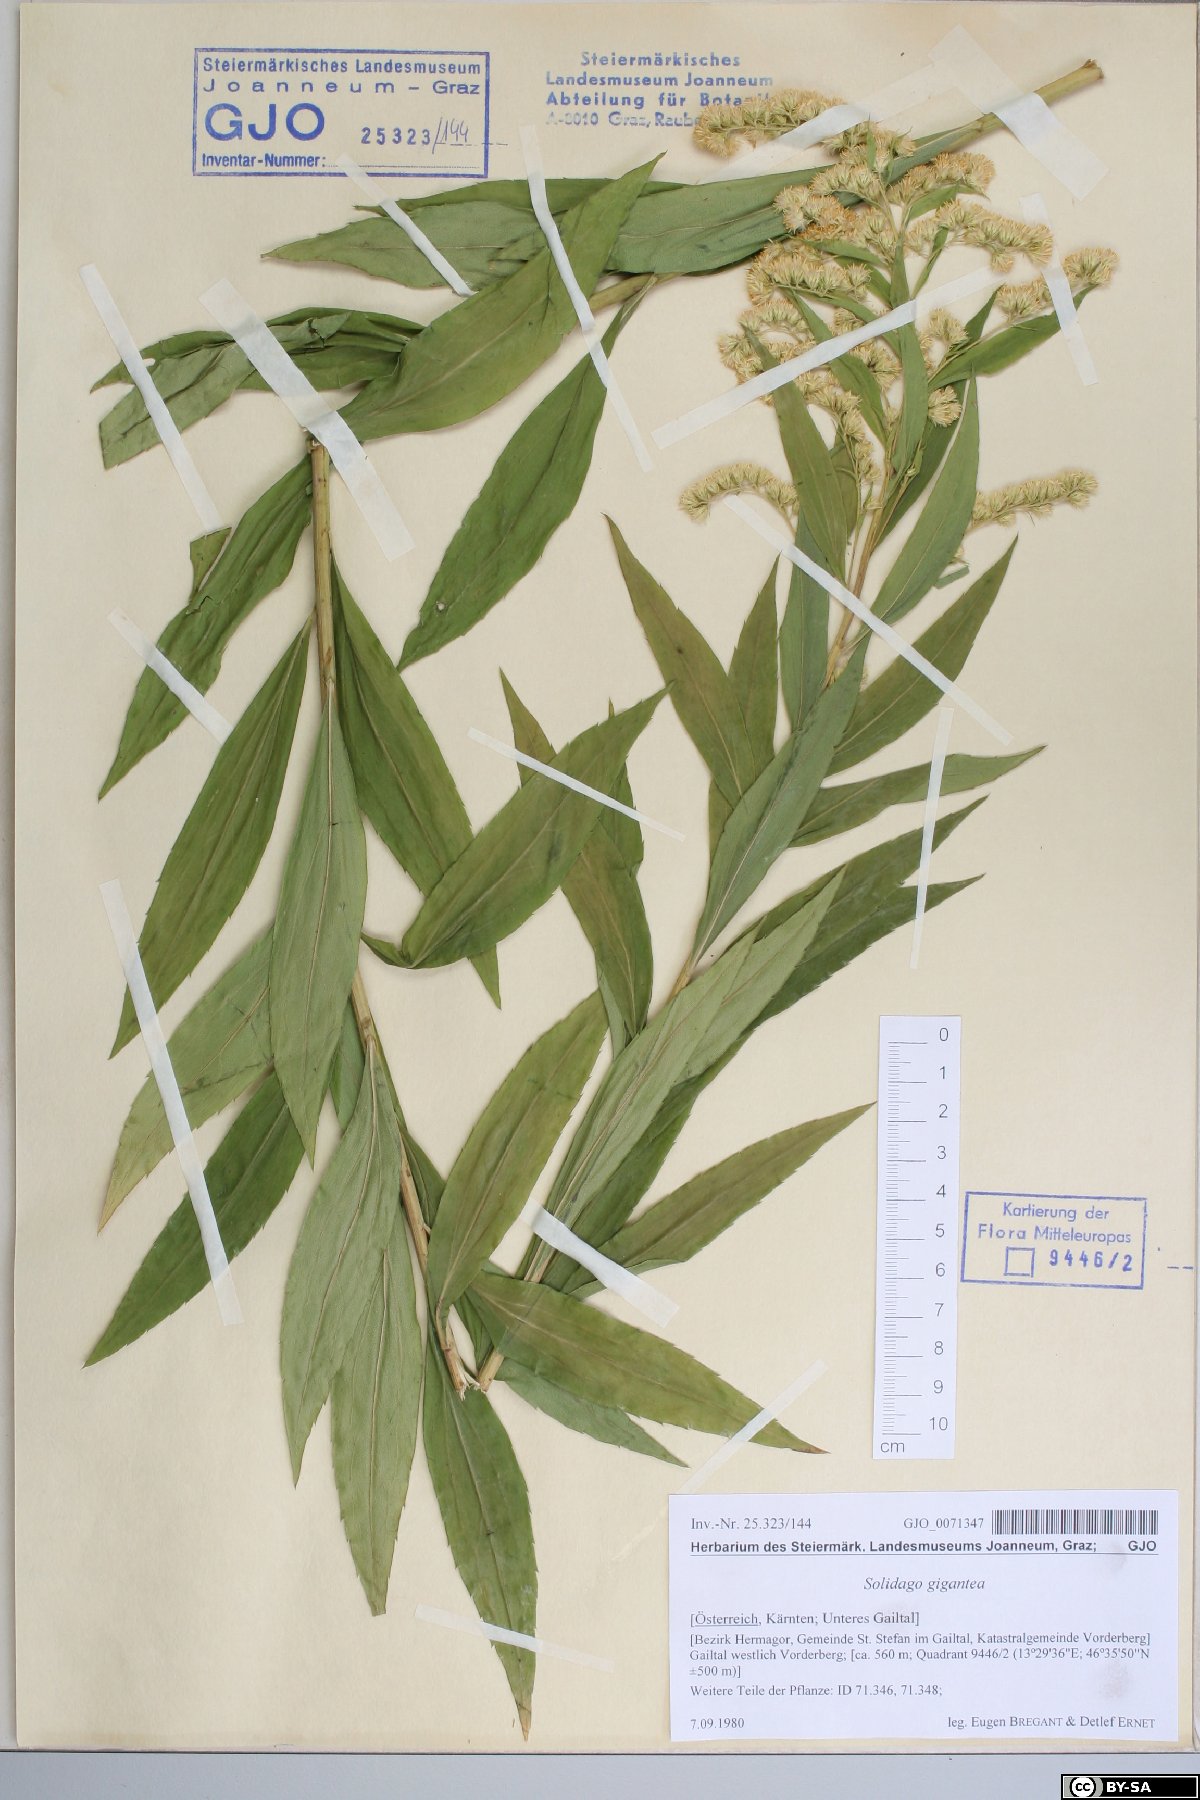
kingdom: Plantae
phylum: Tracheophyta
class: Magnoliopsida
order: Asterales
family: Asteraceae
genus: Solidago
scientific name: Solidago gigantea
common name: Giant goldenrod
